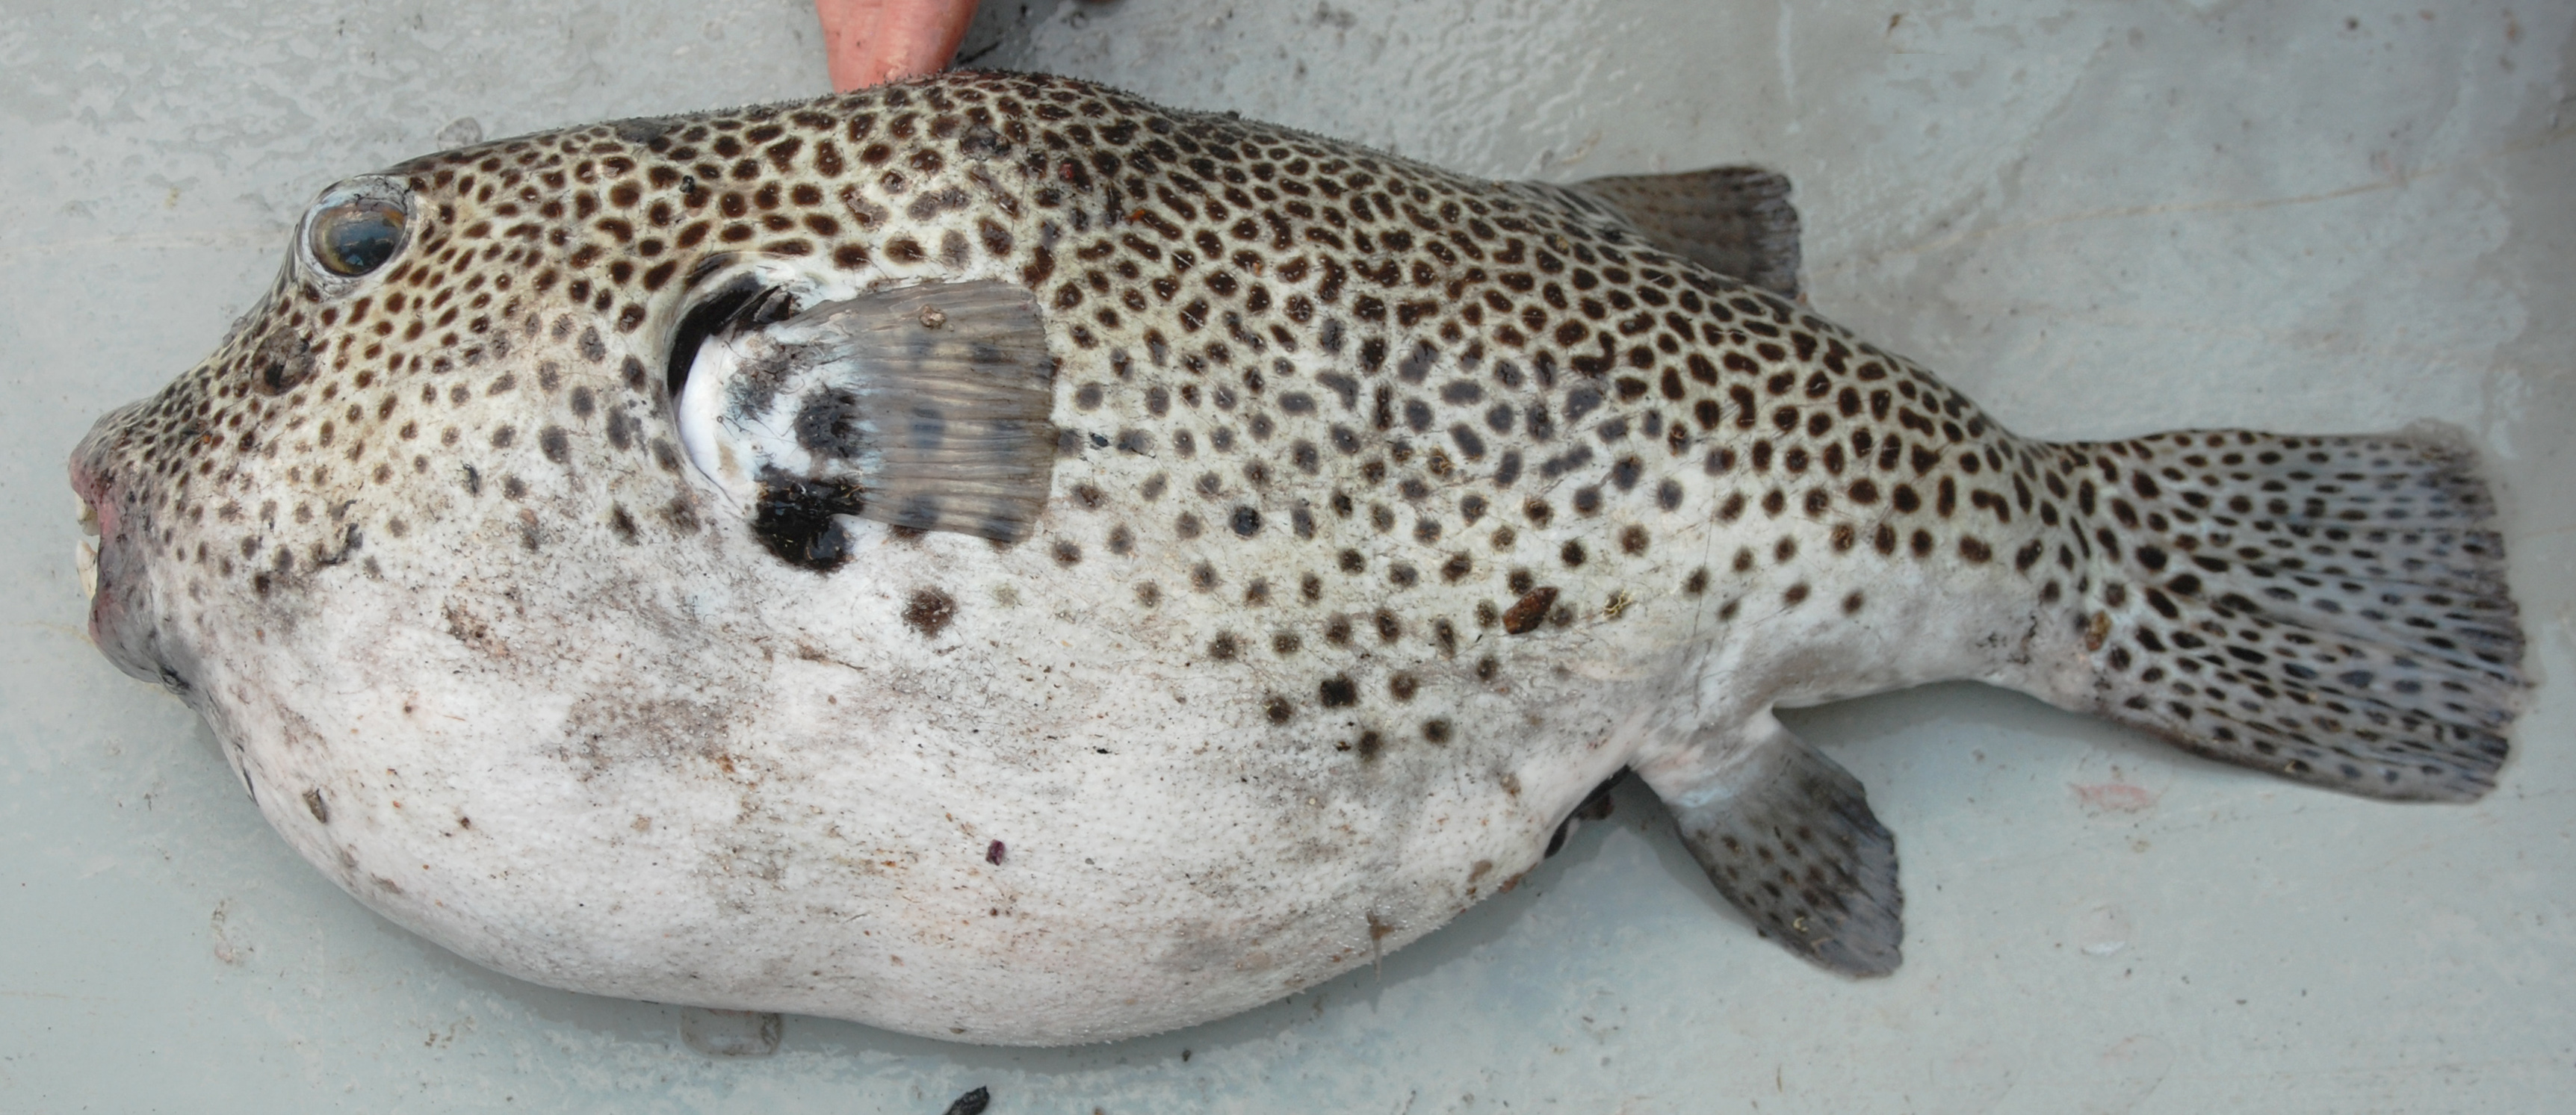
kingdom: Animalia
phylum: Chordata
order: Tetraodontiformes
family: Tetraodontidae
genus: Arothron
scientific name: Arothron stellatus
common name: Star blaasop
